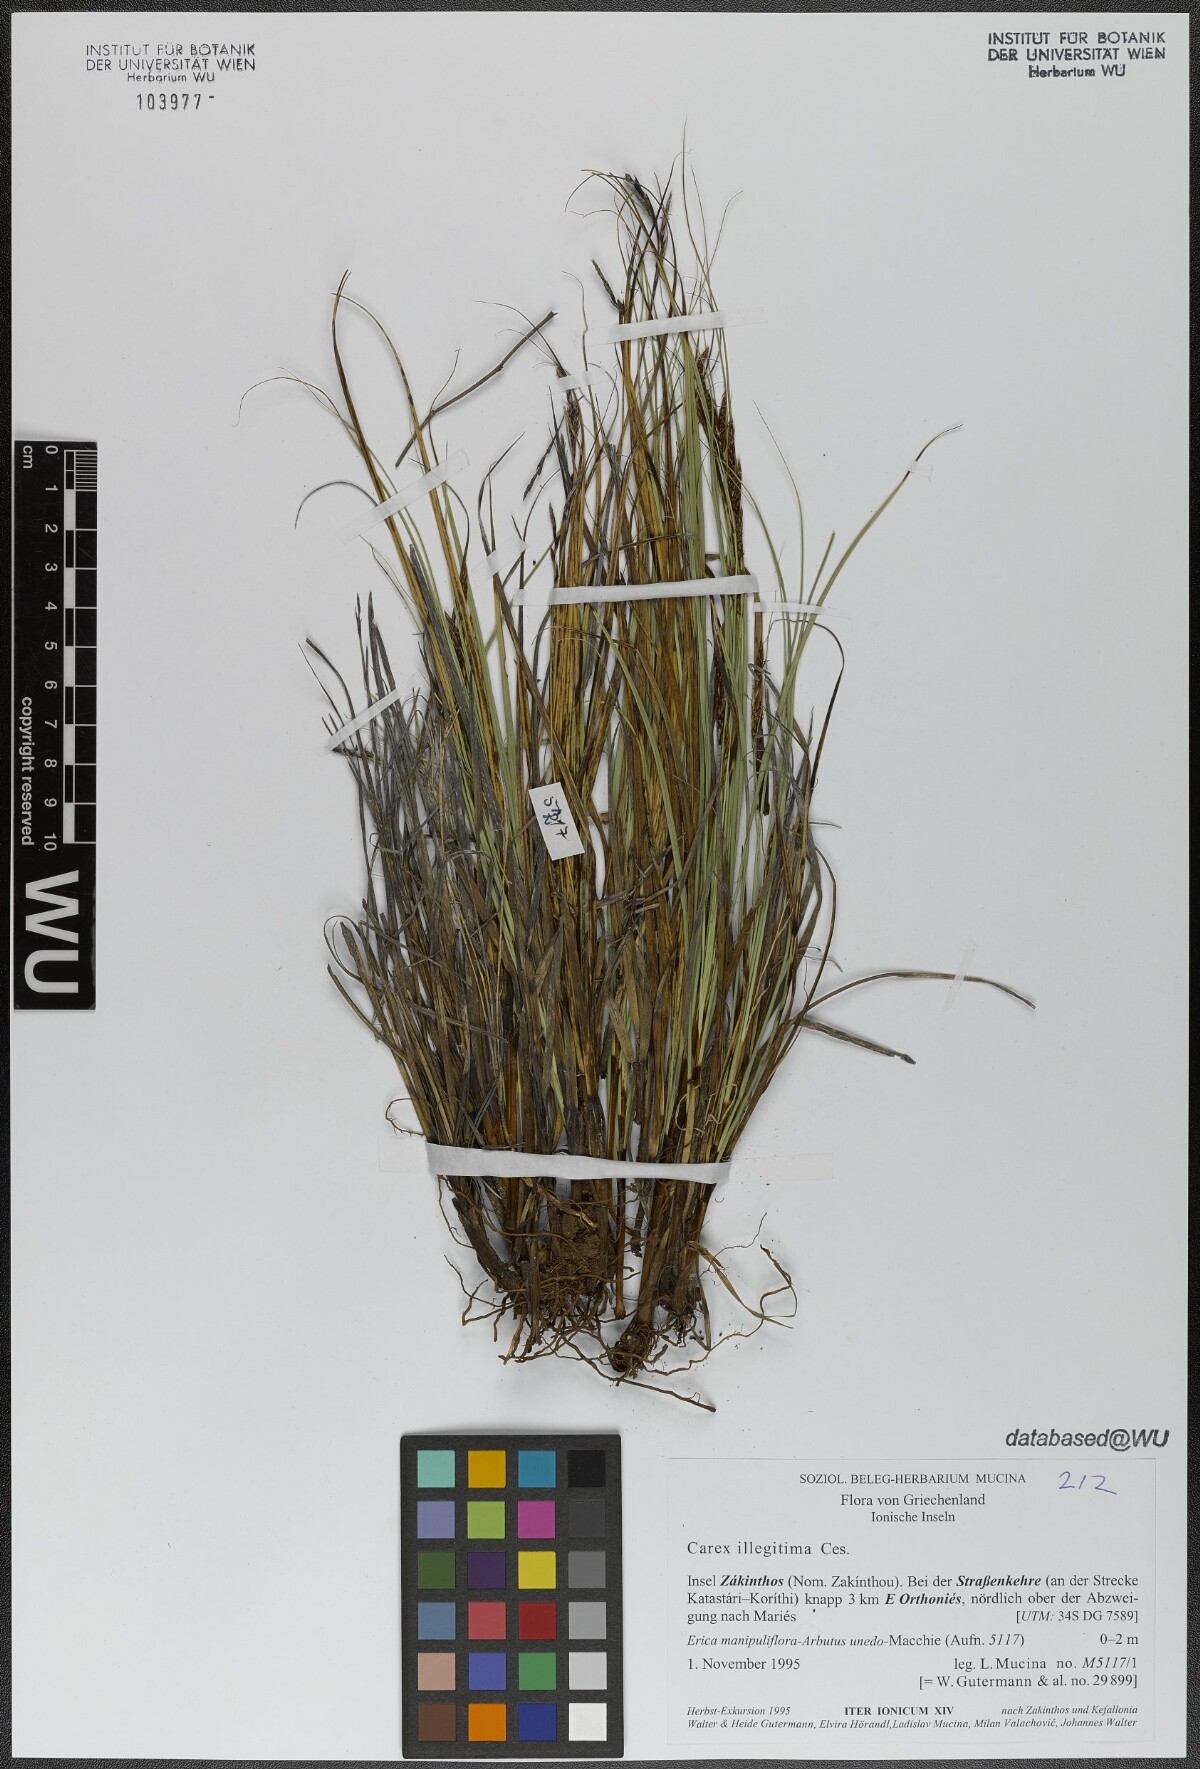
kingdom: Plantae
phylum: Tracheophyta
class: Liliopsida
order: Poales
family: Cyperaceae
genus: Carex
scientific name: Carex illegitima
